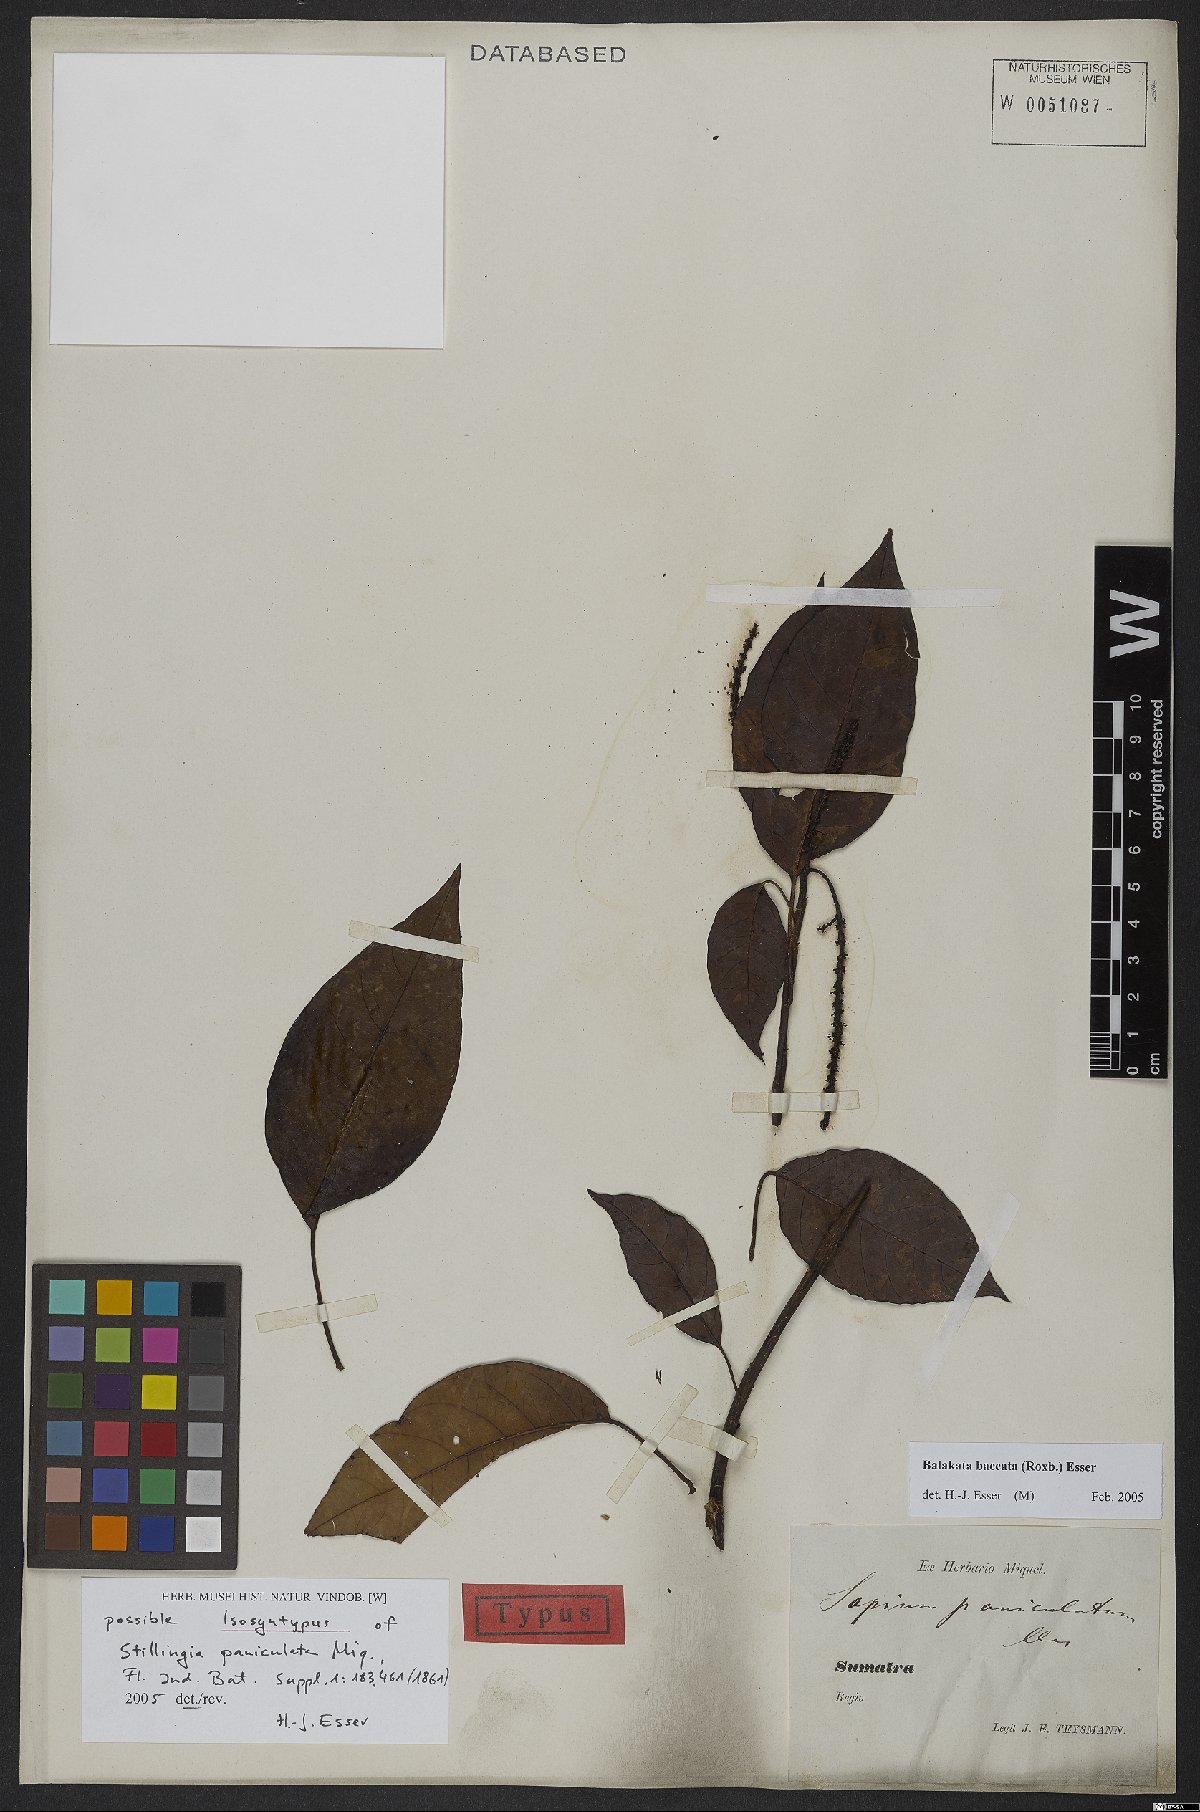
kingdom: Plantae
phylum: Tracheophyta
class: Magnoliopsida
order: Malpighiales
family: Euphorbiaceae
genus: Balakata
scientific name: Balakata baccata
